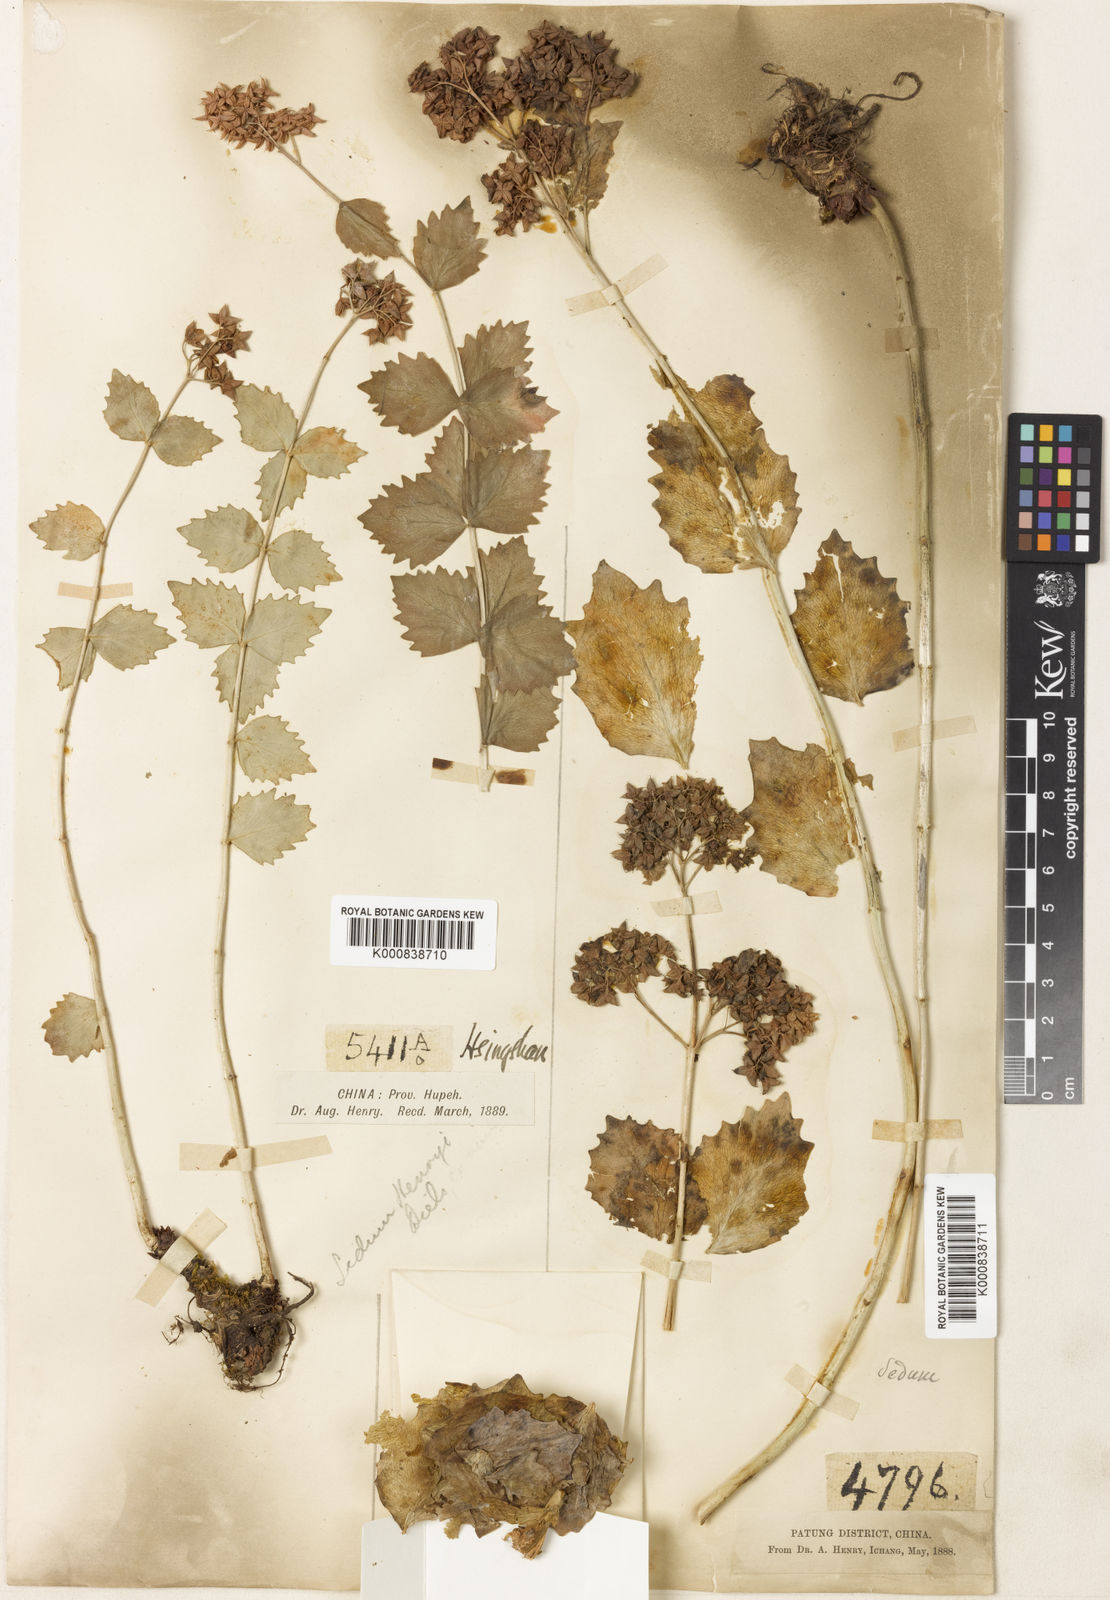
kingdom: Plantae
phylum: Tracheophyta
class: Magnoliopsida
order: Saxifragales
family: Crassulaceae
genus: Rhodiola
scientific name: Rhodiola yunnanensis
